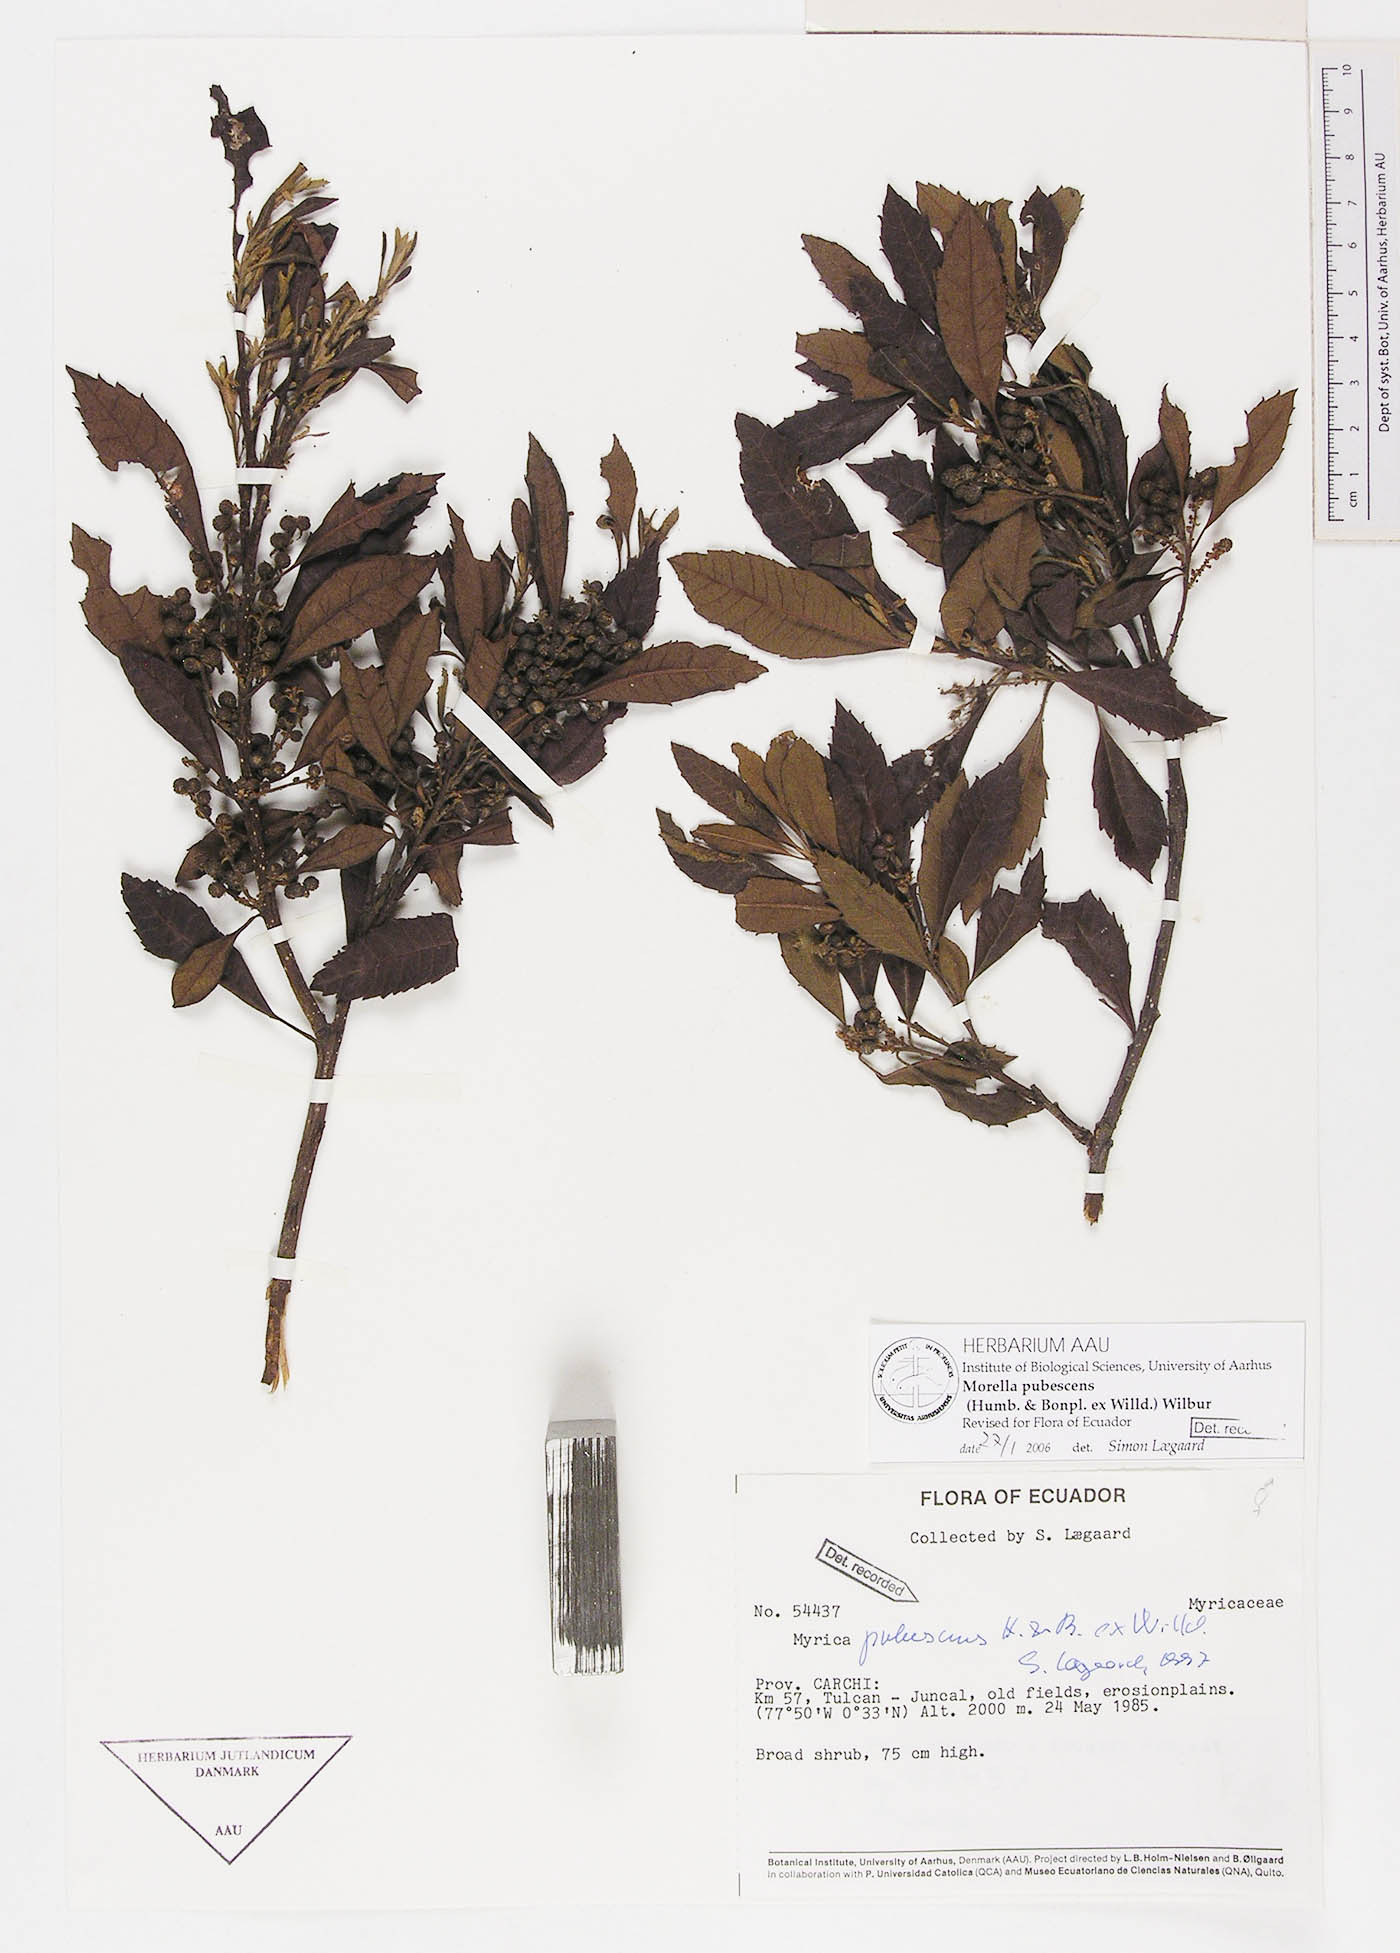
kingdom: Plantae
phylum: Tracheophyta
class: Magnoliopsida
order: Fagales
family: Myricaceae
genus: Morella
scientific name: Morella pubescens
